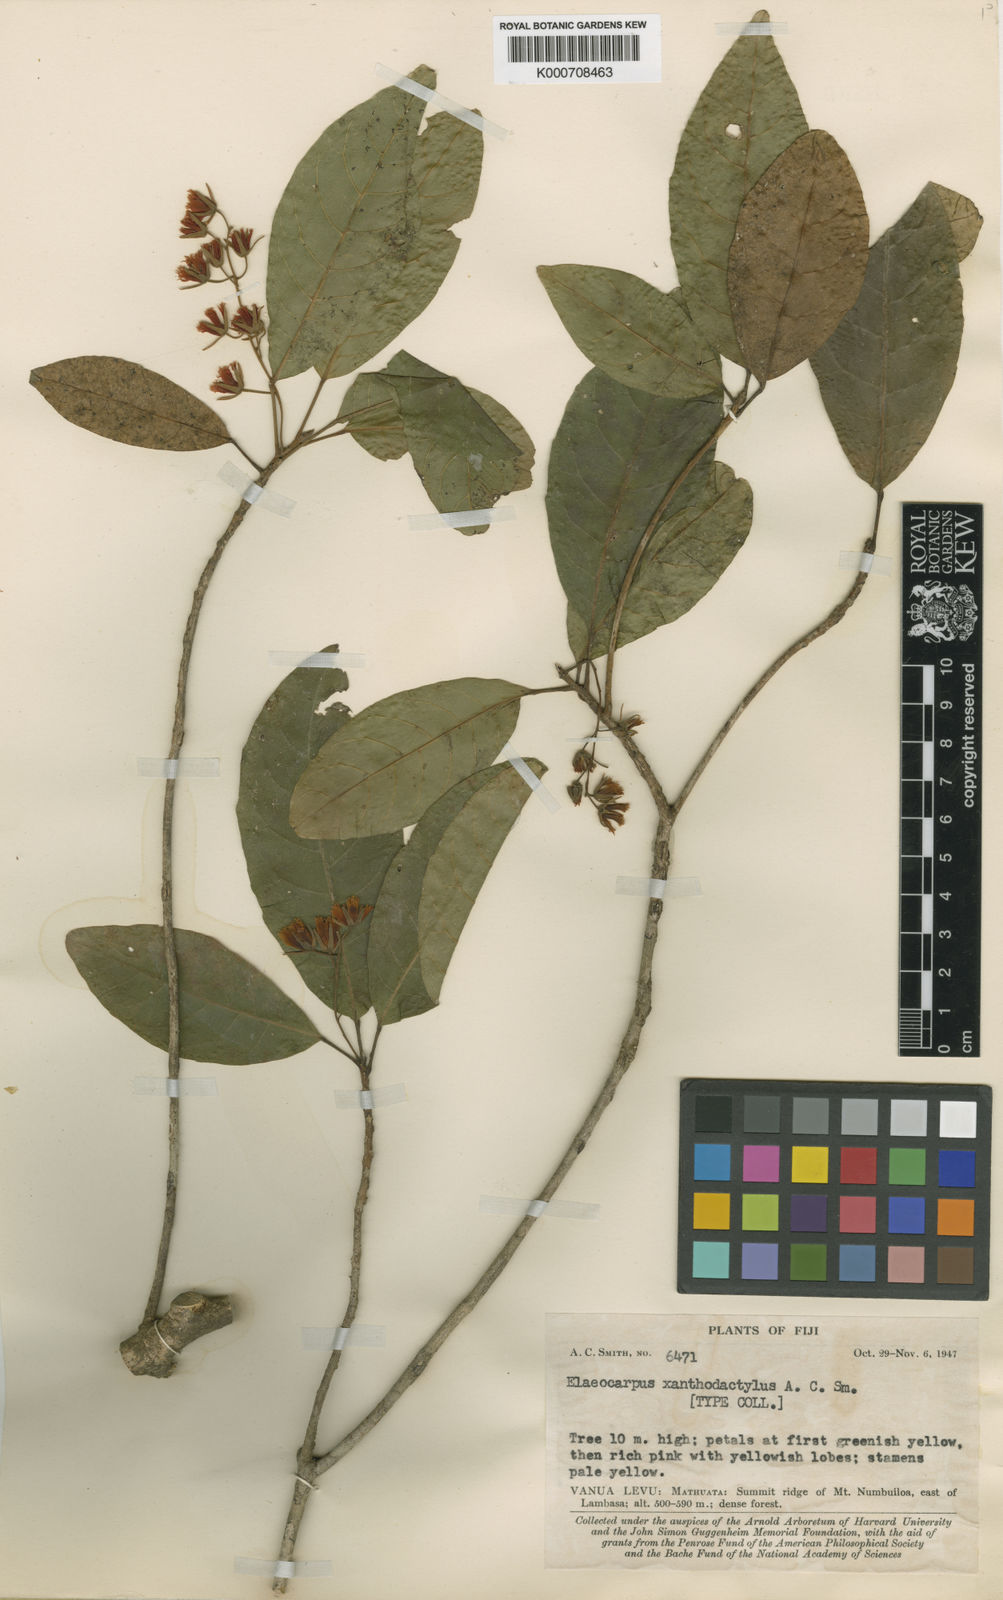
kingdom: Plantae
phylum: Tracheophyta
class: Magnoliopsida
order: Oxalidales
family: Elaeocarpaceae
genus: Elaeocarpus
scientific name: Elaeocarpus xanthodactylus
